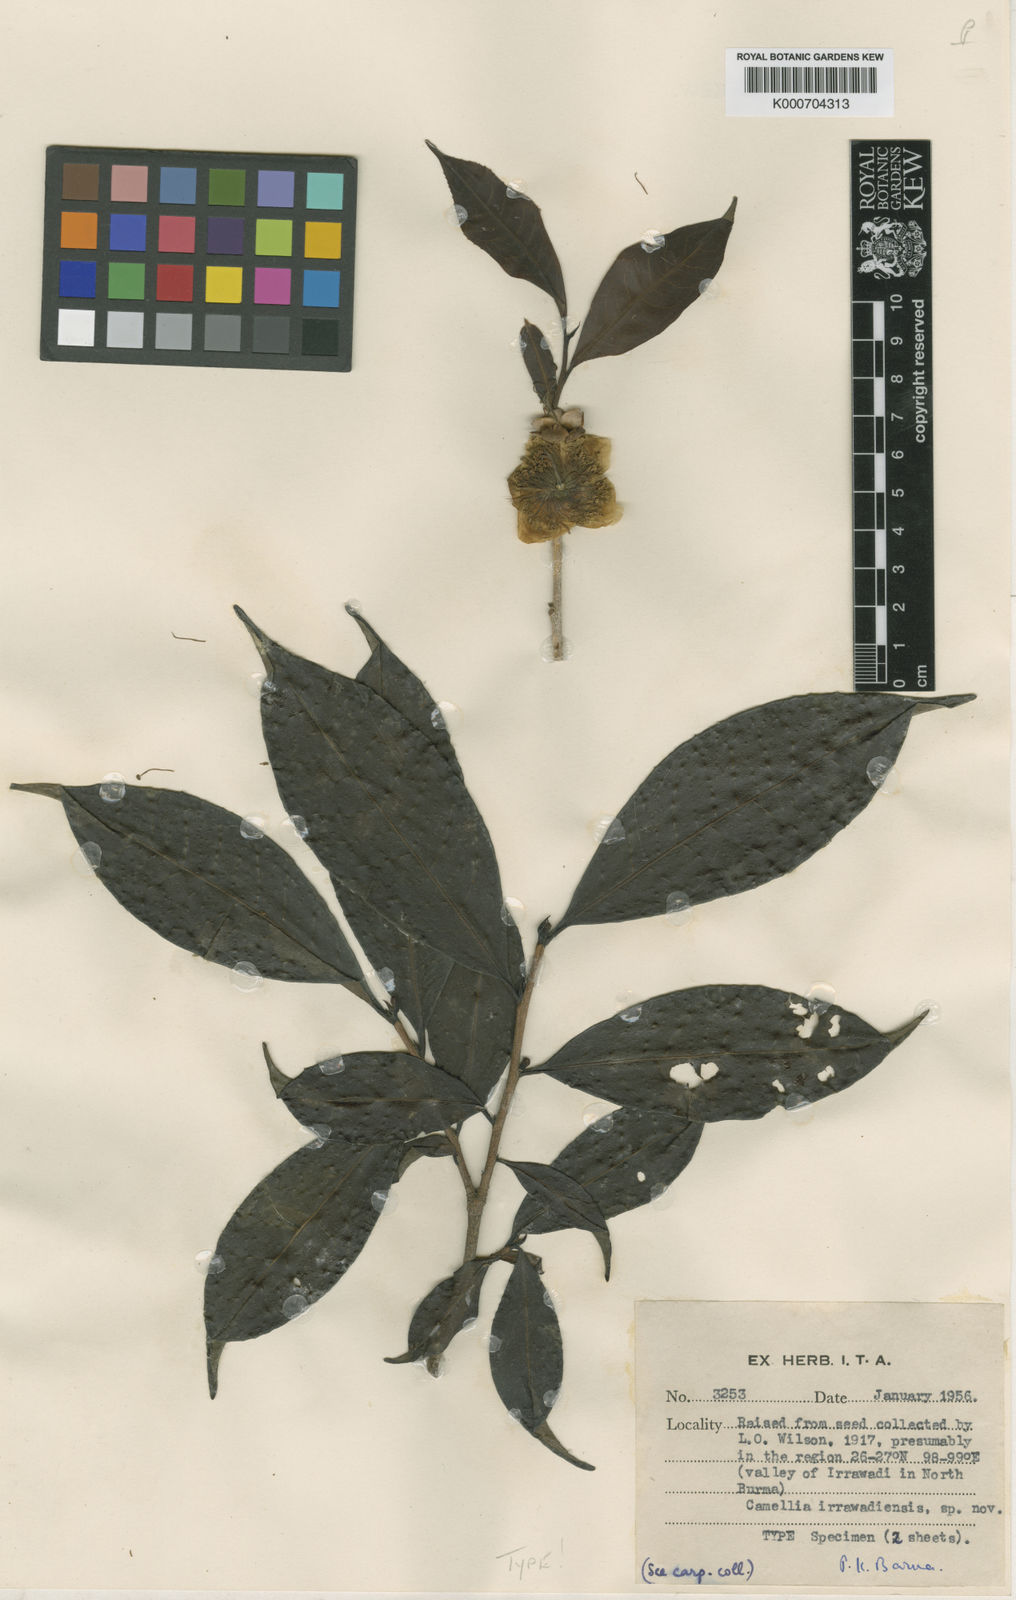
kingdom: Plantae
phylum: Tracheophyta
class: Magnoliopsida
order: Ericales
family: Theaceae
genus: Camellia
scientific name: Camellia taliensis
